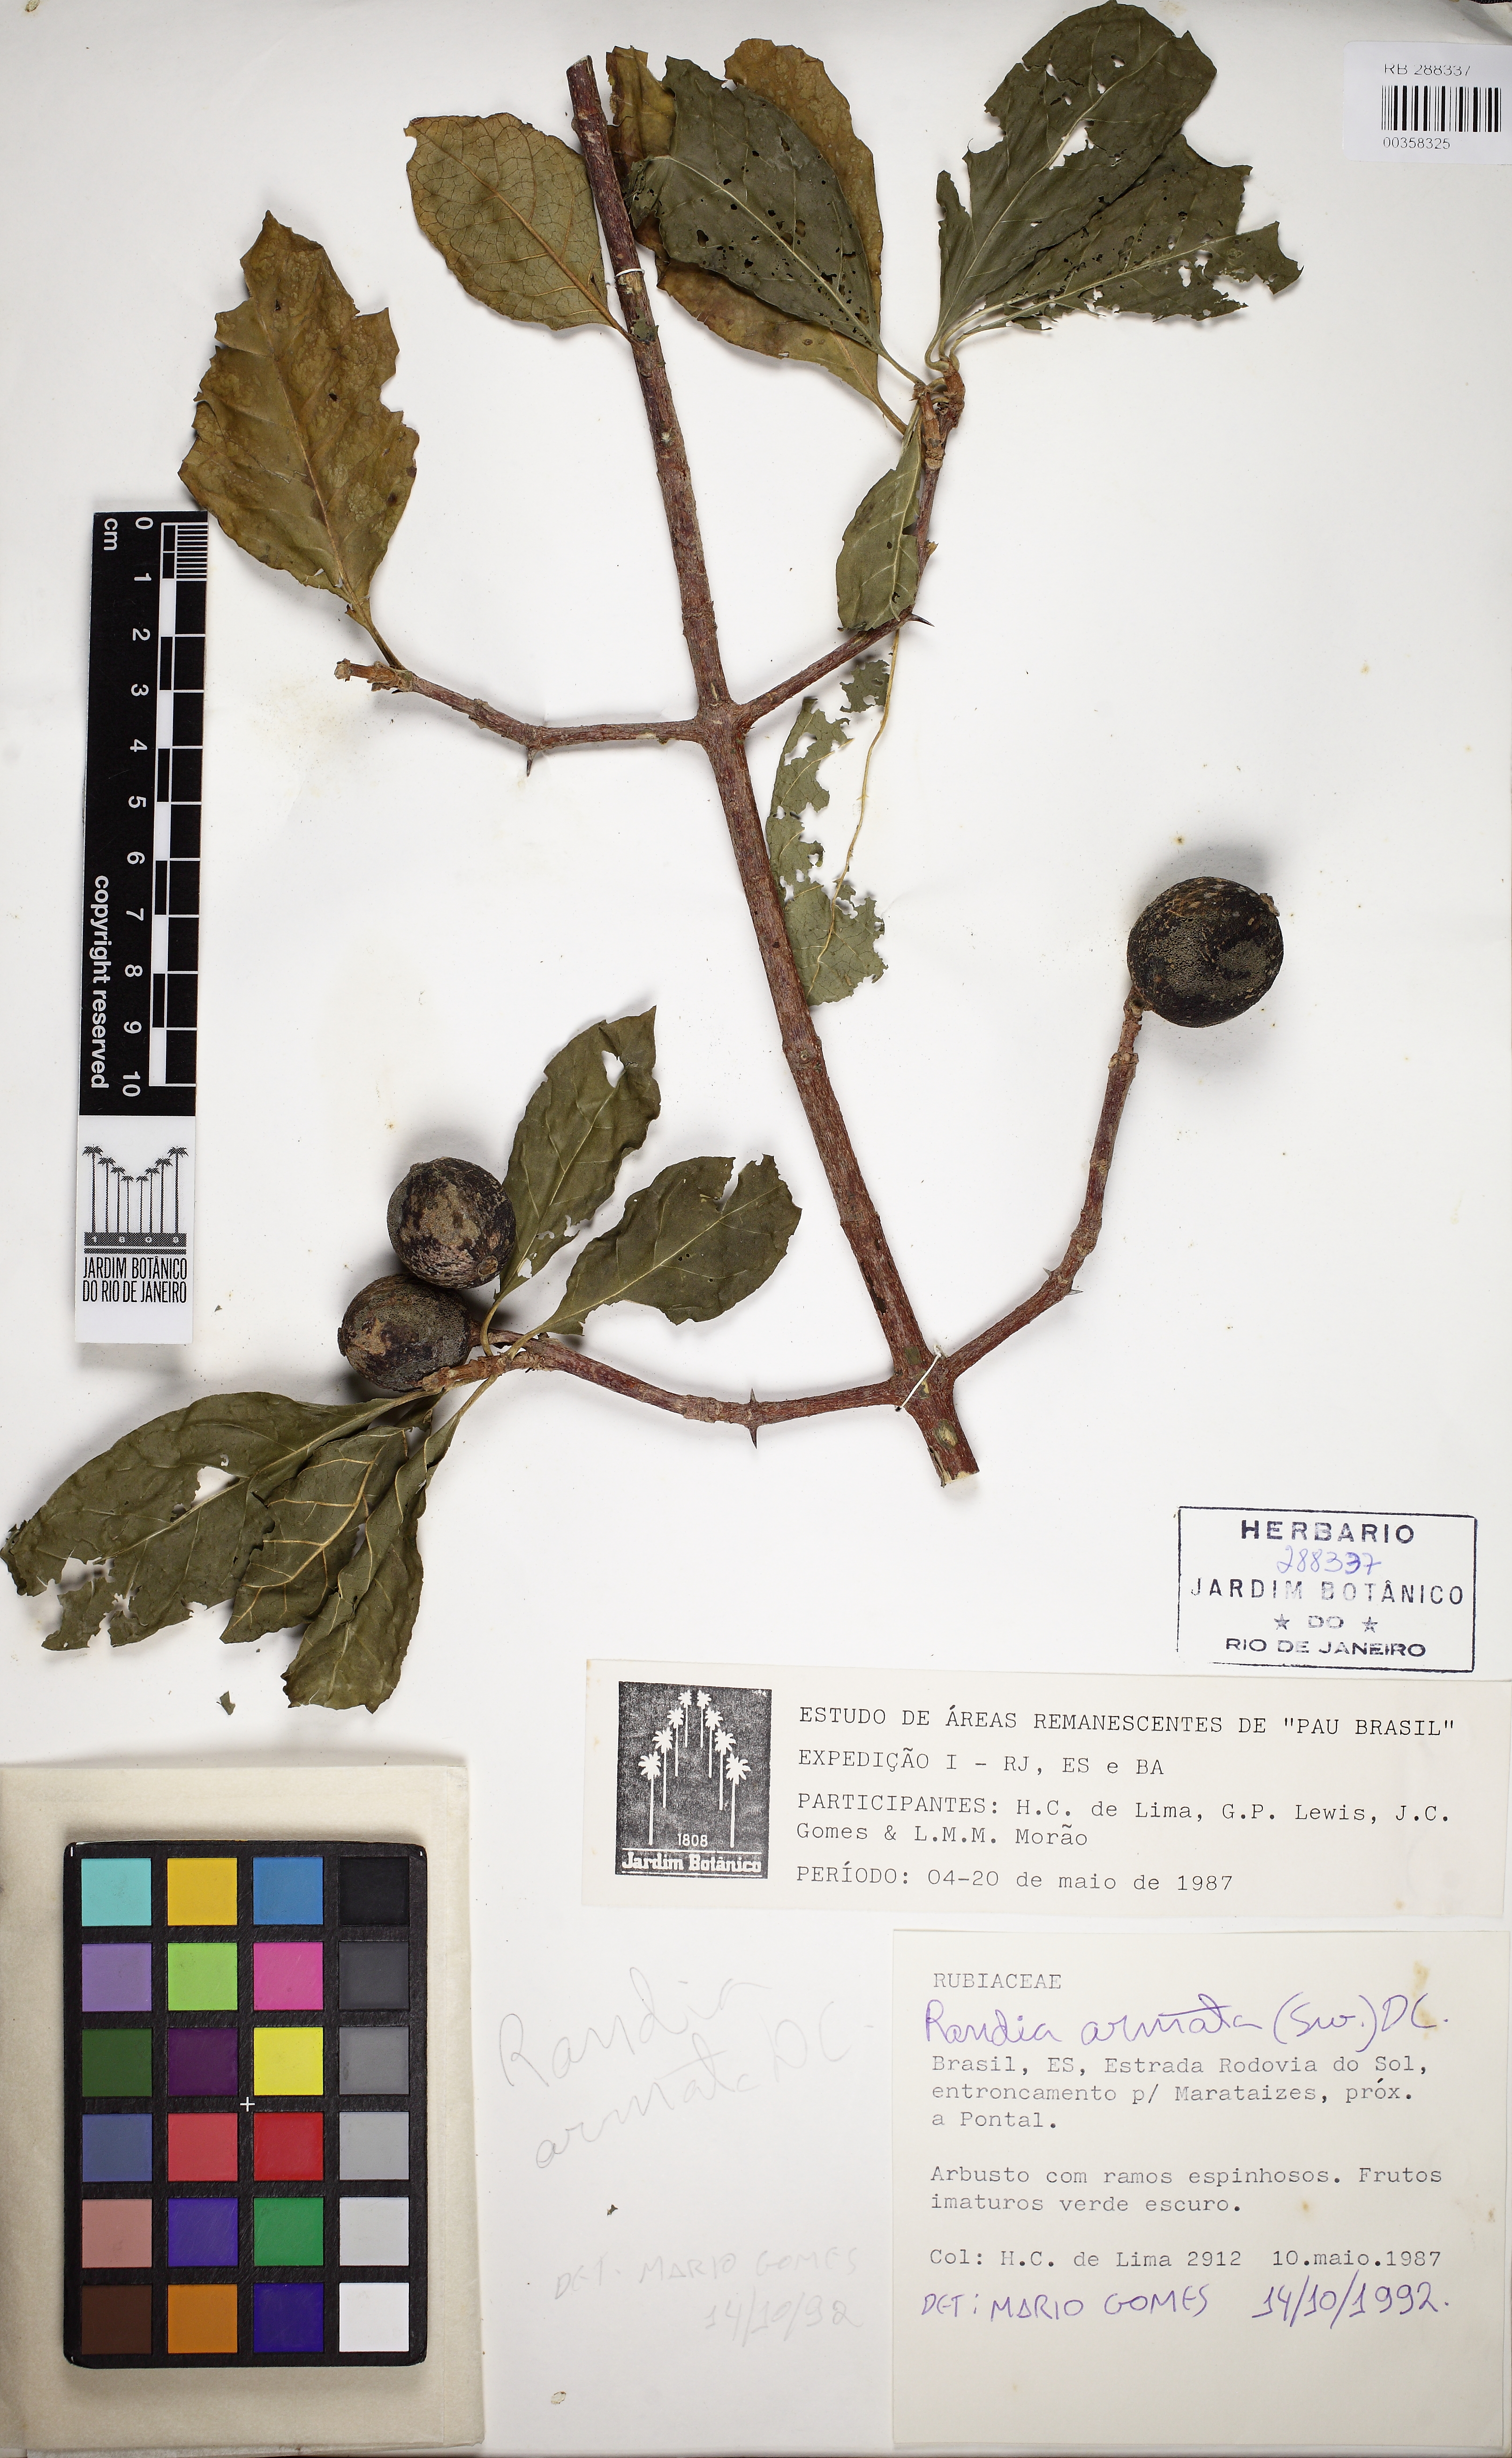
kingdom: Plantae
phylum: Tracheophyta
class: Magnoliopsida
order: Gentianales
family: Rubiaceae
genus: Randia
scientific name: Randia ferox
